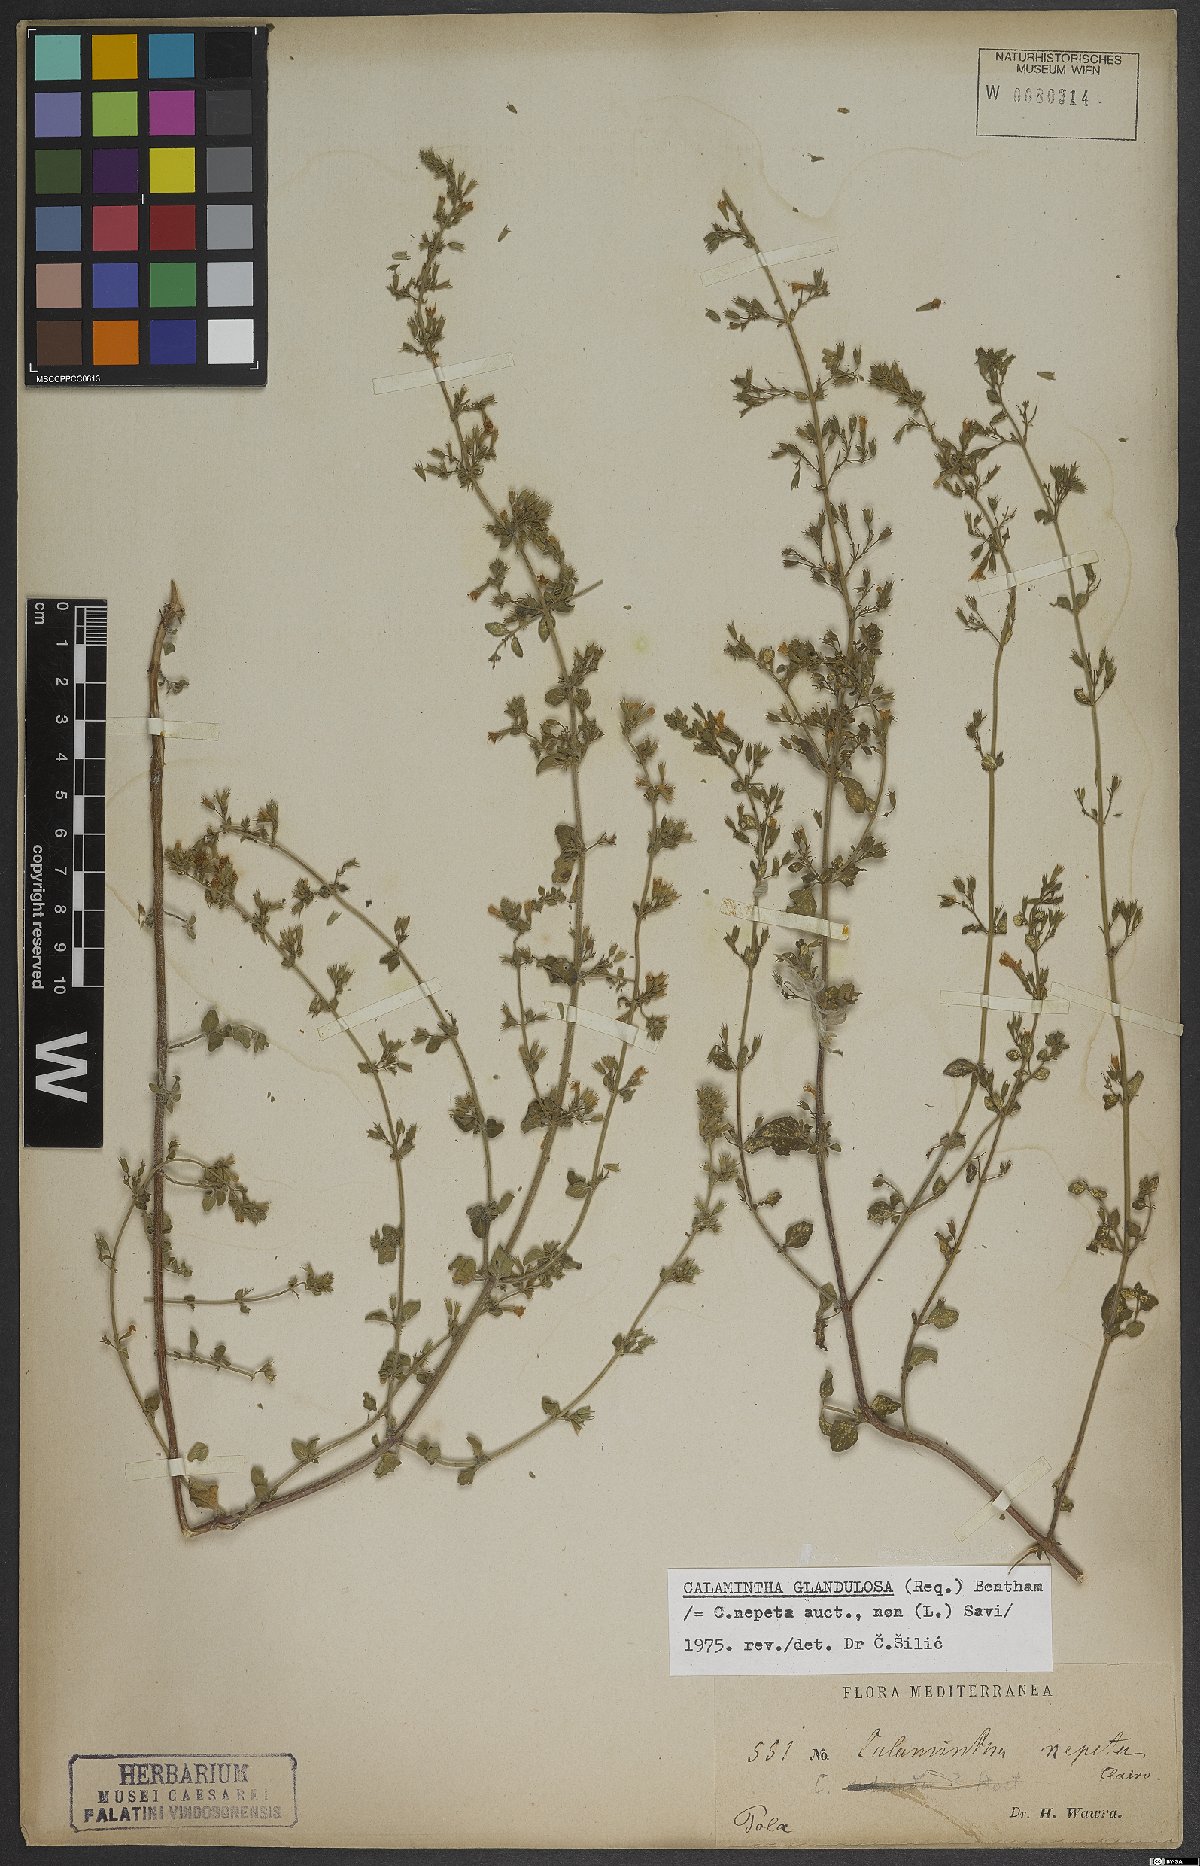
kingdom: Plantae
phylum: Tracheophyta
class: Magnoliopsida
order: Lamiales
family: Lamiaceae
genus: Clinopodium
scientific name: Clinopodium nepeta
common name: Lesser calamint
